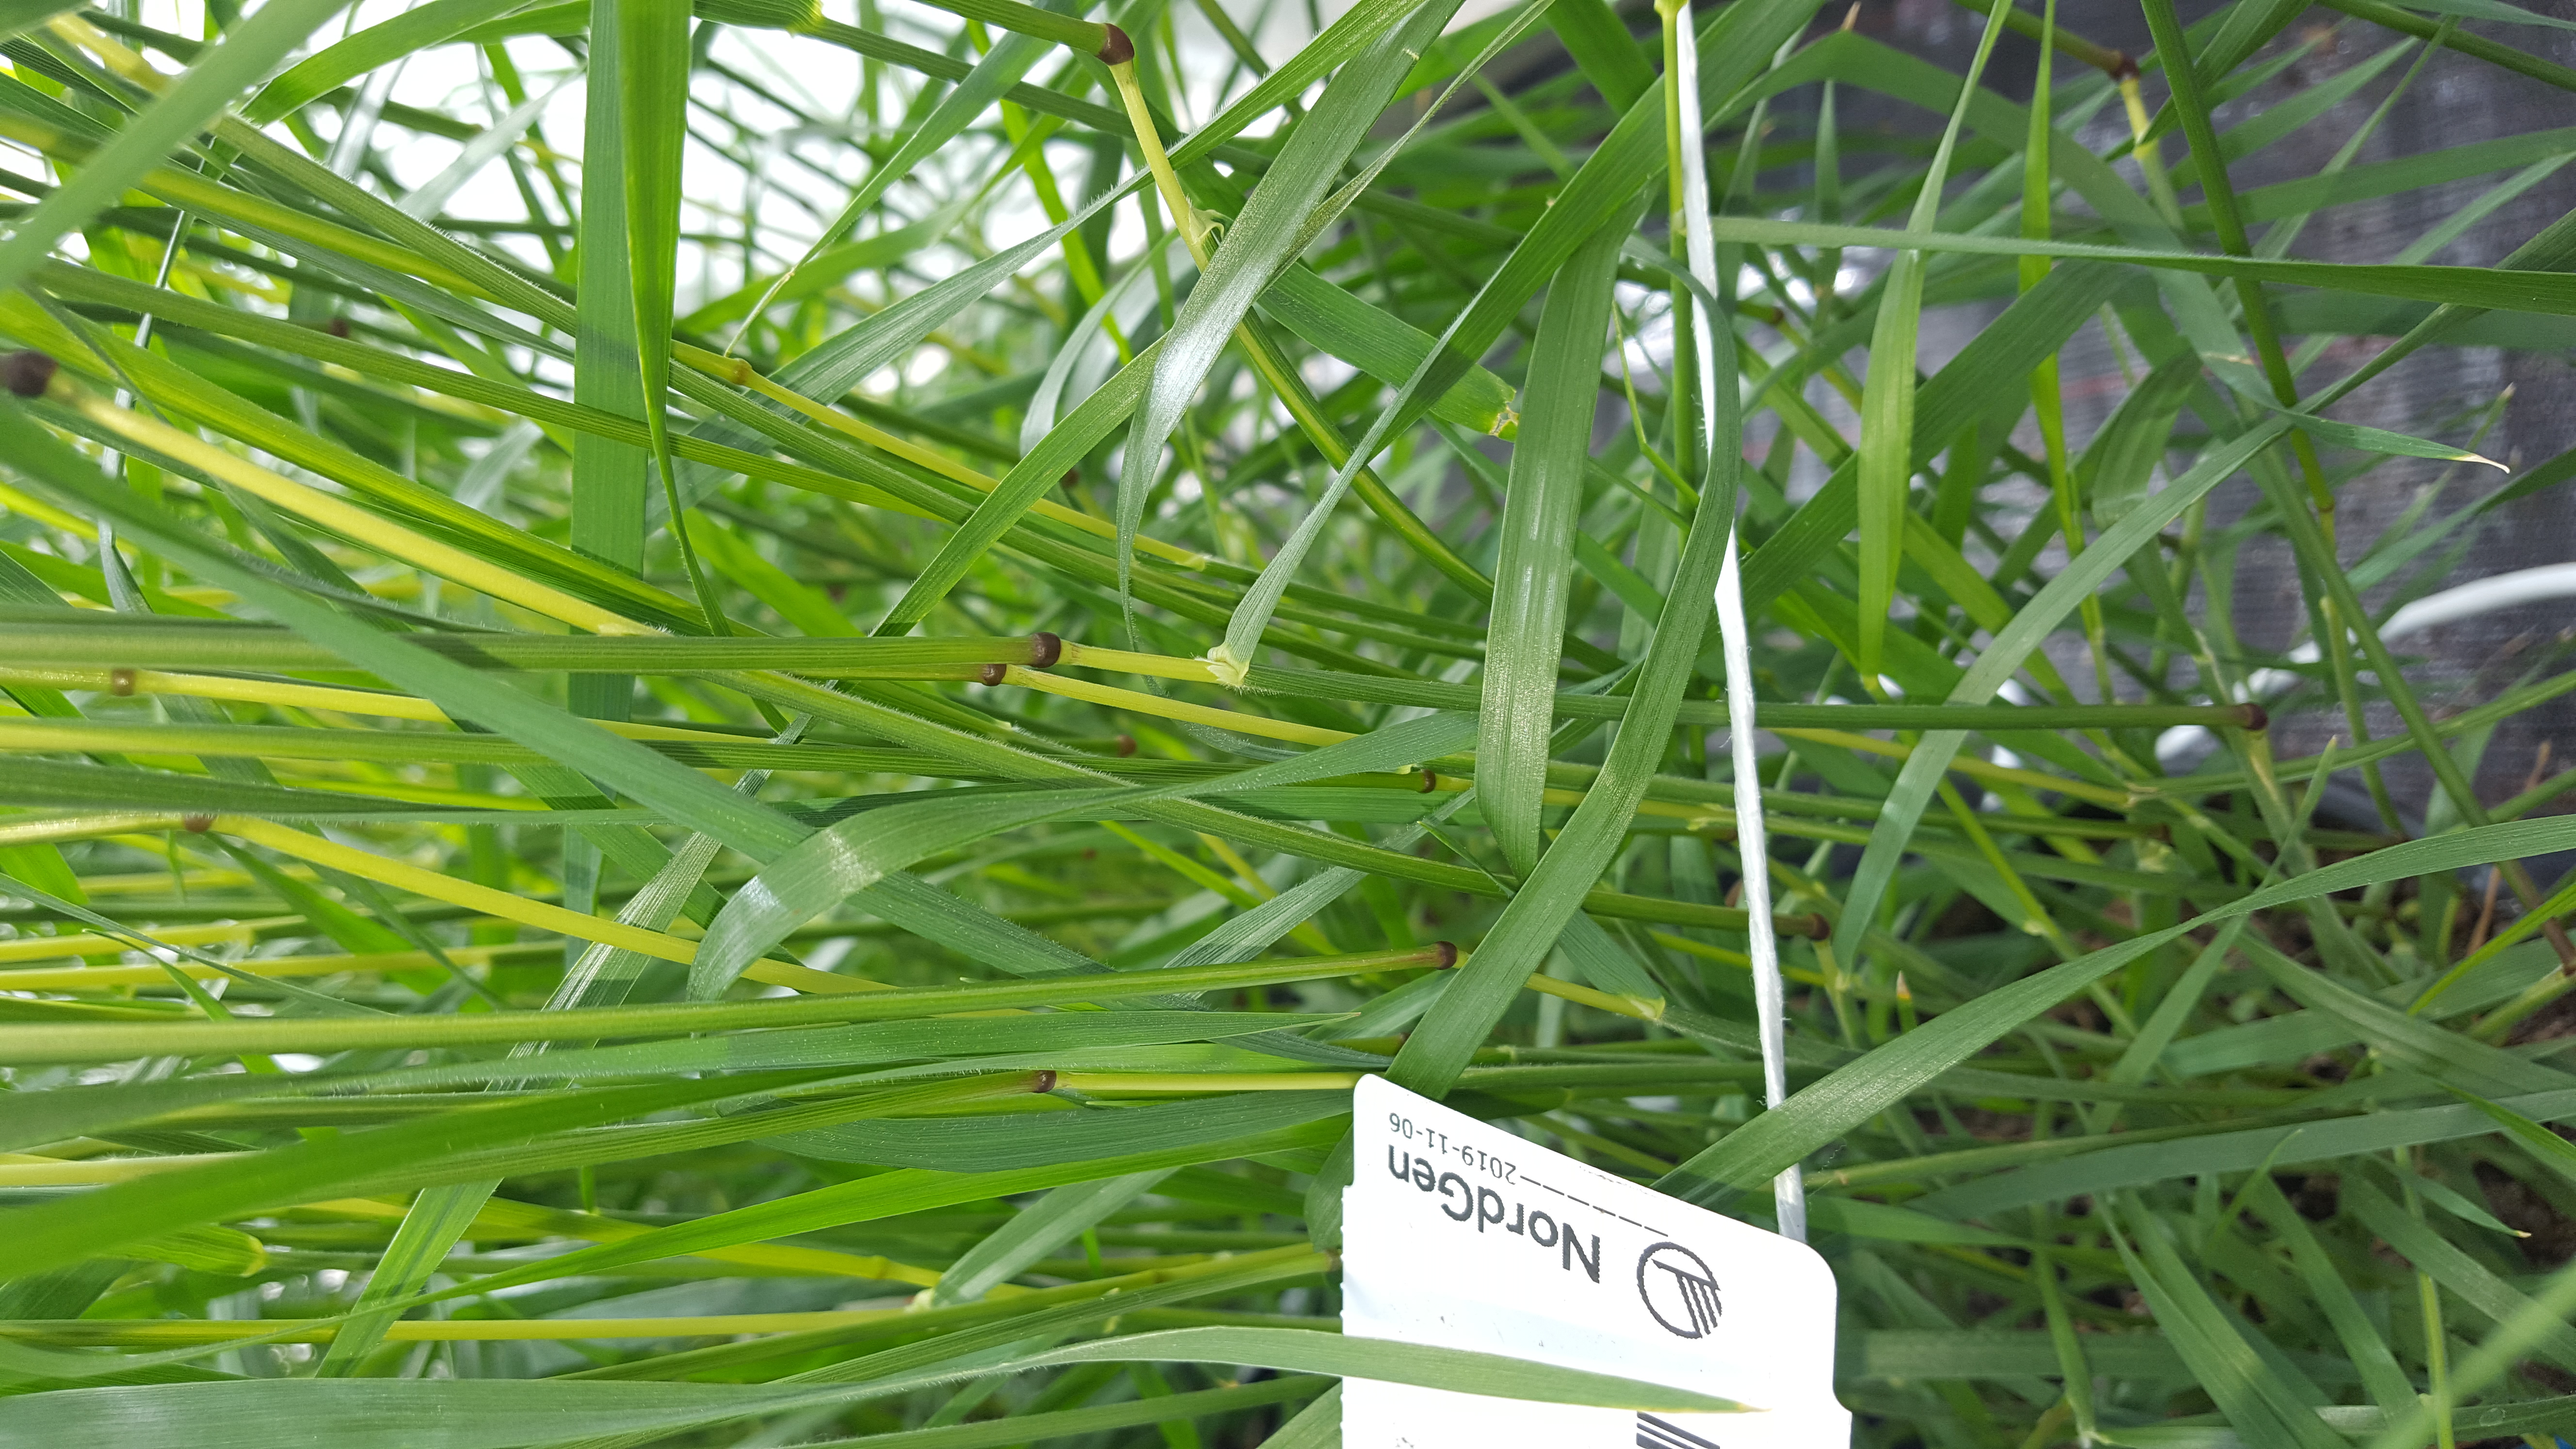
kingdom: Plantae
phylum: Tracheophyta
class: Liliopsida
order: Poales
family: Poaceae
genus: Hordeum
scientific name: Hordeum stenostachys
